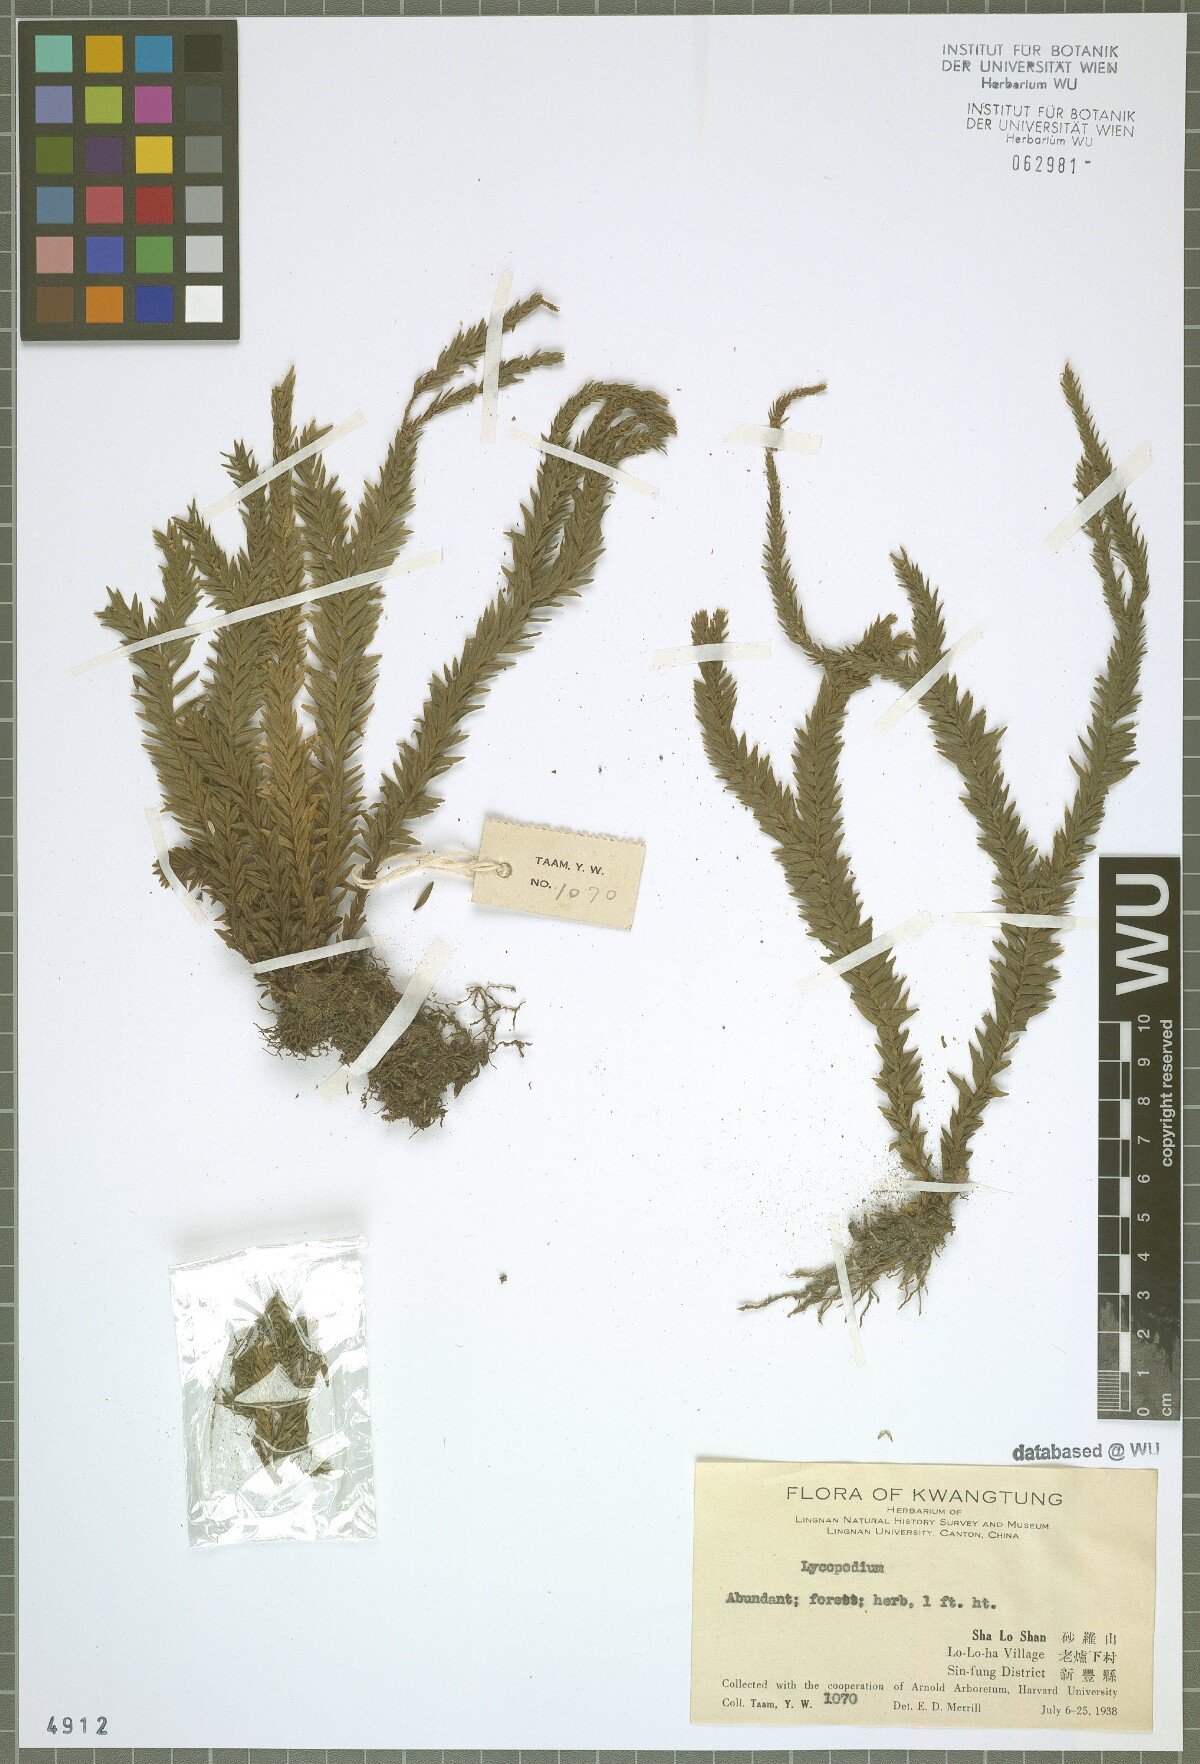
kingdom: Plantae
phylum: Tracheophyta
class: Lycopodiopsida
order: Lycopodiales
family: Lycopodiaceae
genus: Lycopodium
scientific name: Lycopodium
